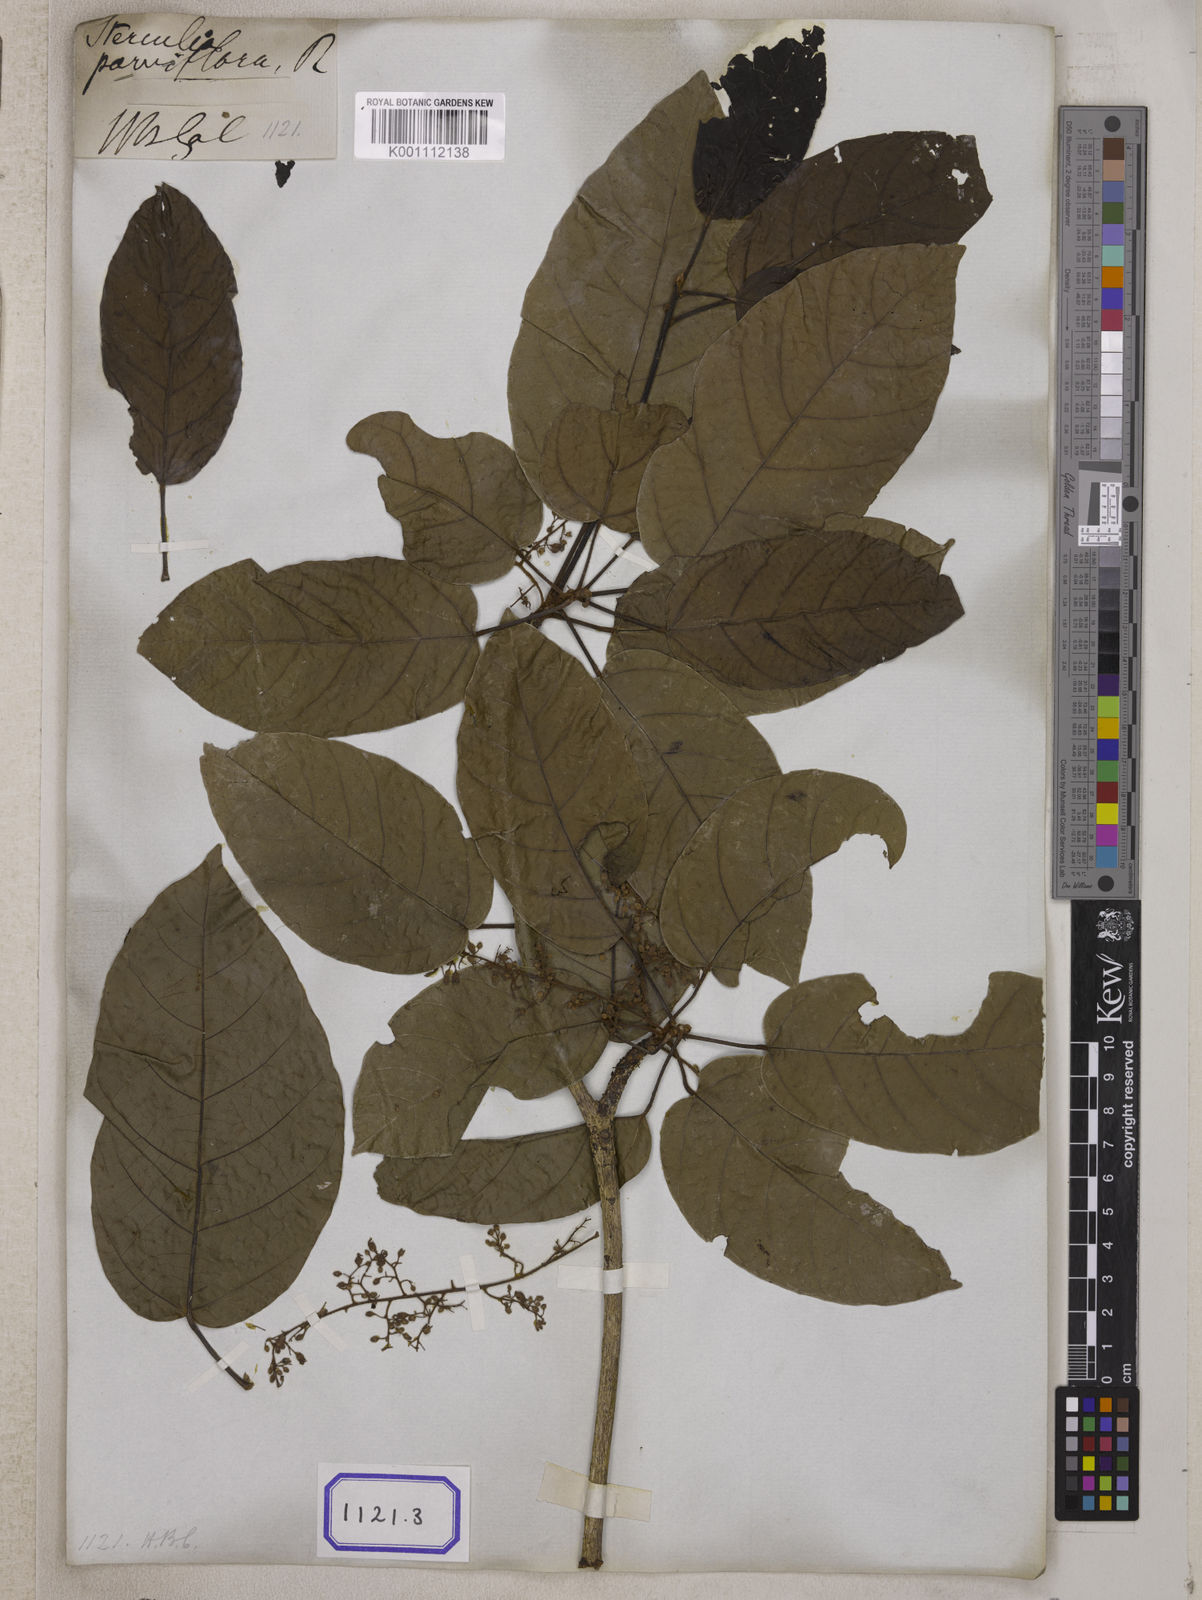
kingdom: Plantae
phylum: Tracheophyta
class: Magnoliopsida
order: Malvales
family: Malvaceae
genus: Sterculia
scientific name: Sterculia
